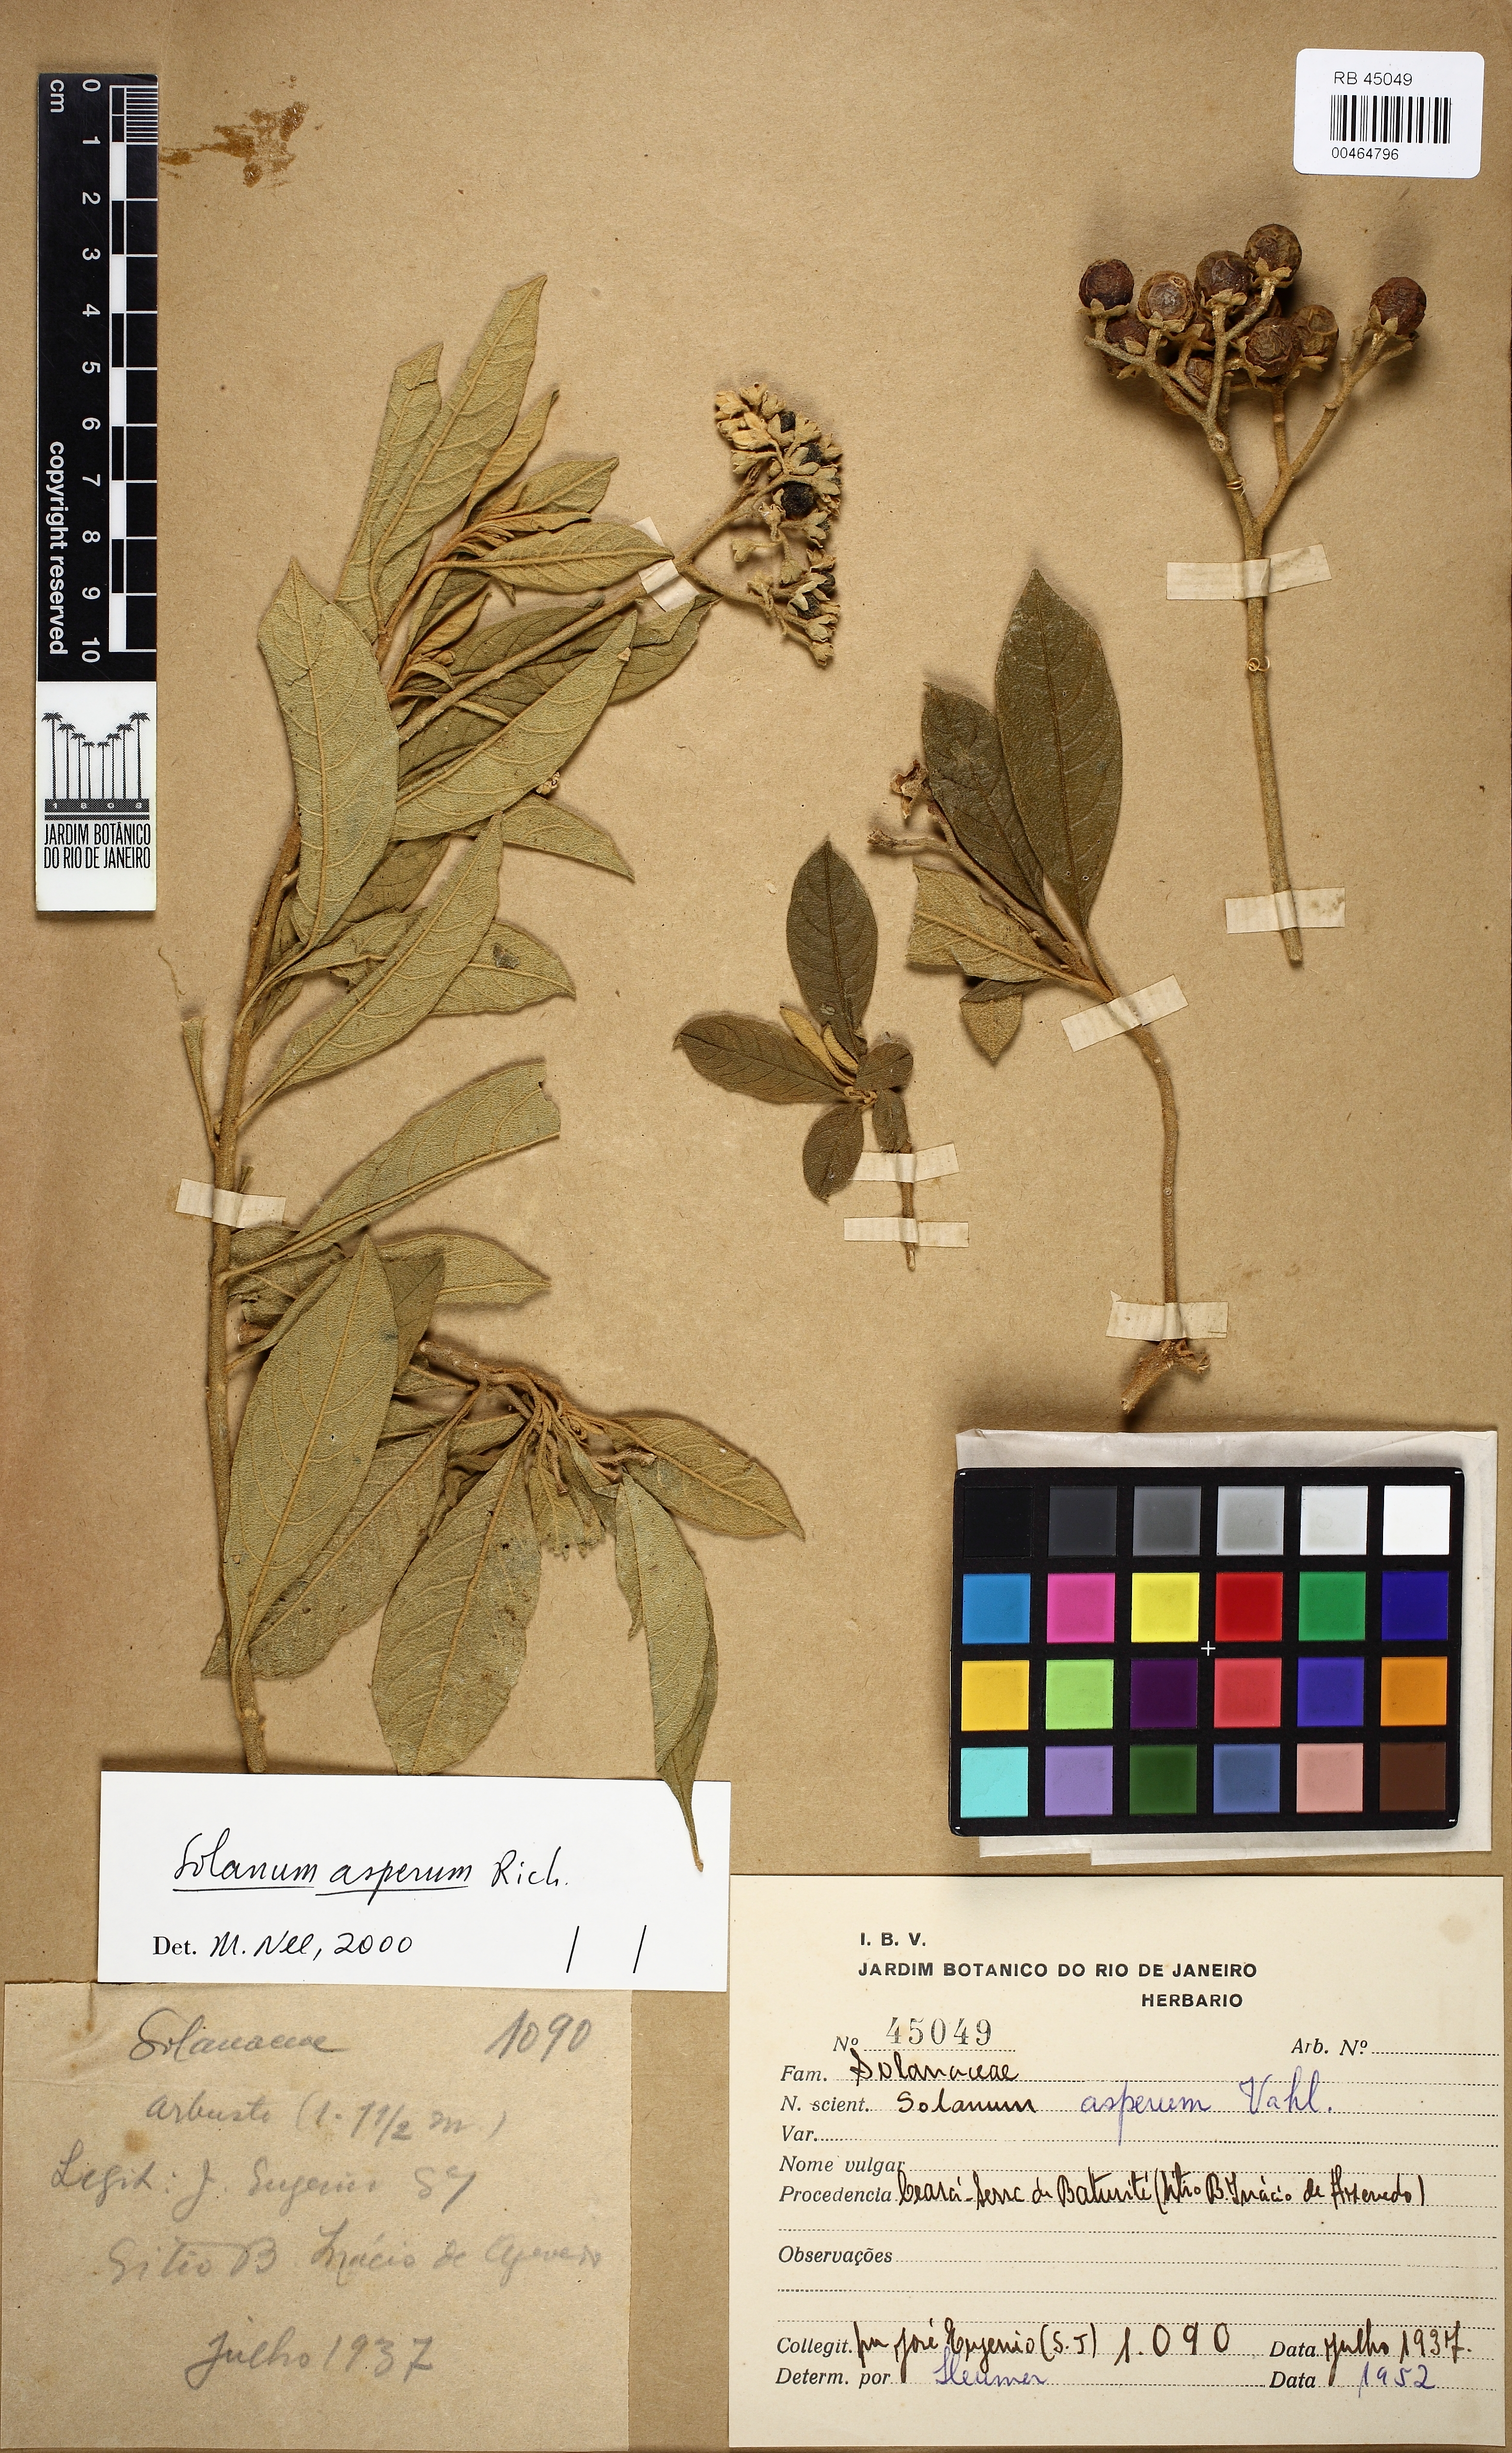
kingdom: Plantae
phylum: Tracheophyta
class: Magnoliopsida
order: Solanales
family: Solanaceae
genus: Solanum
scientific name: Solanum asperum
